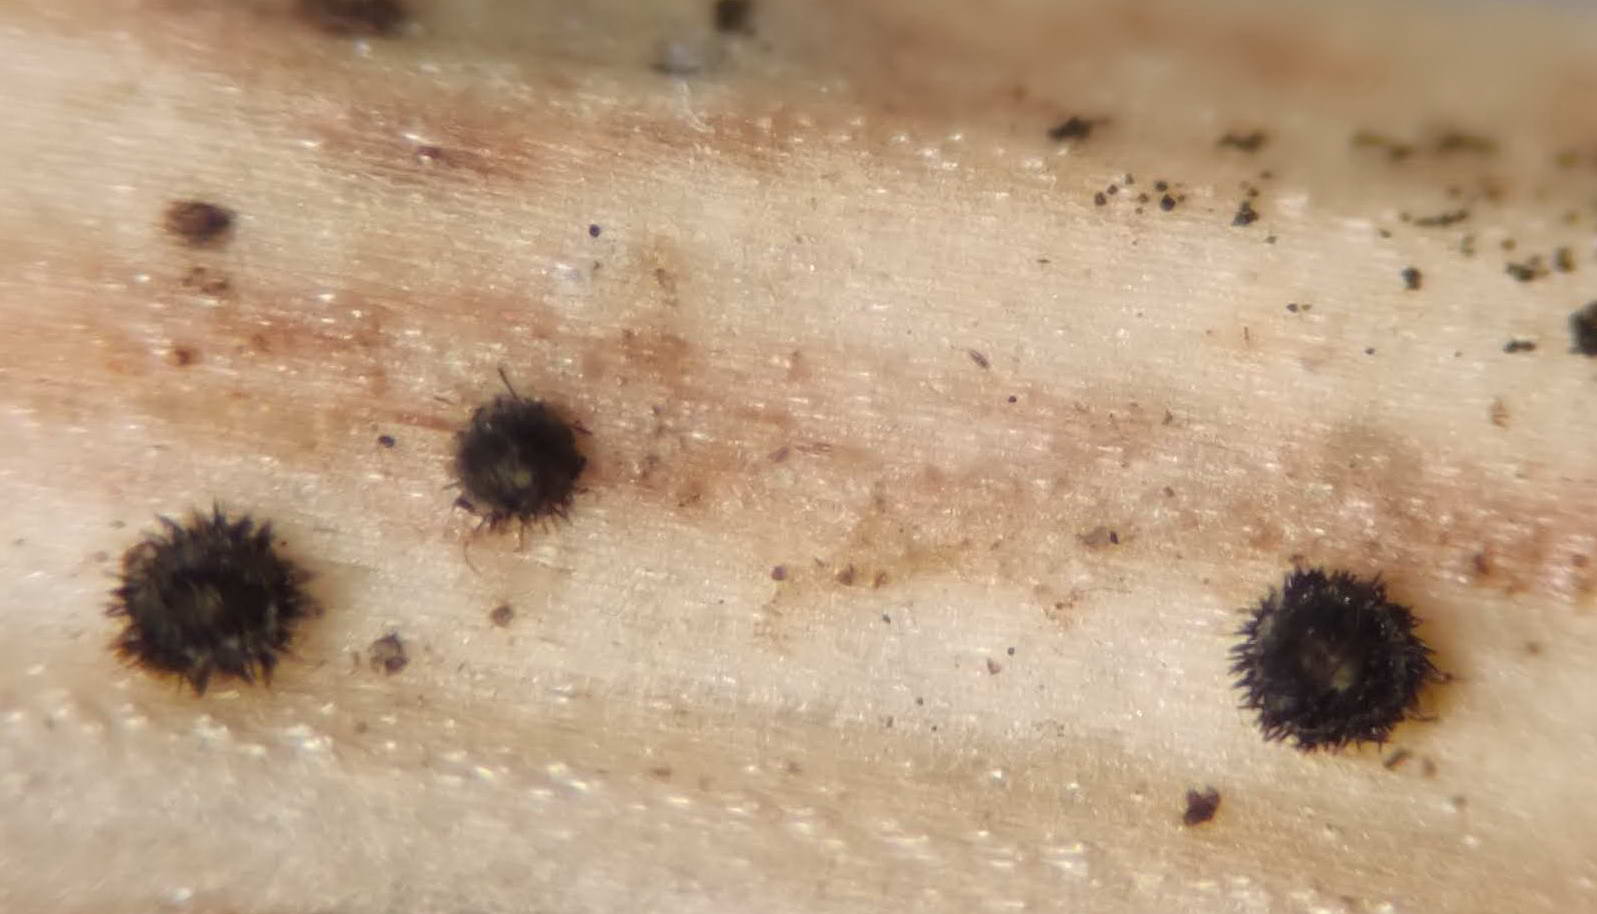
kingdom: Fungi
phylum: Ascomycota
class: Leotiomycetes
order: Helotiales
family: Solenopeziaceae
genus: Lasiobelonium
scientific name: Lasiobelonium nidulus
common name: rede-frynseskive
